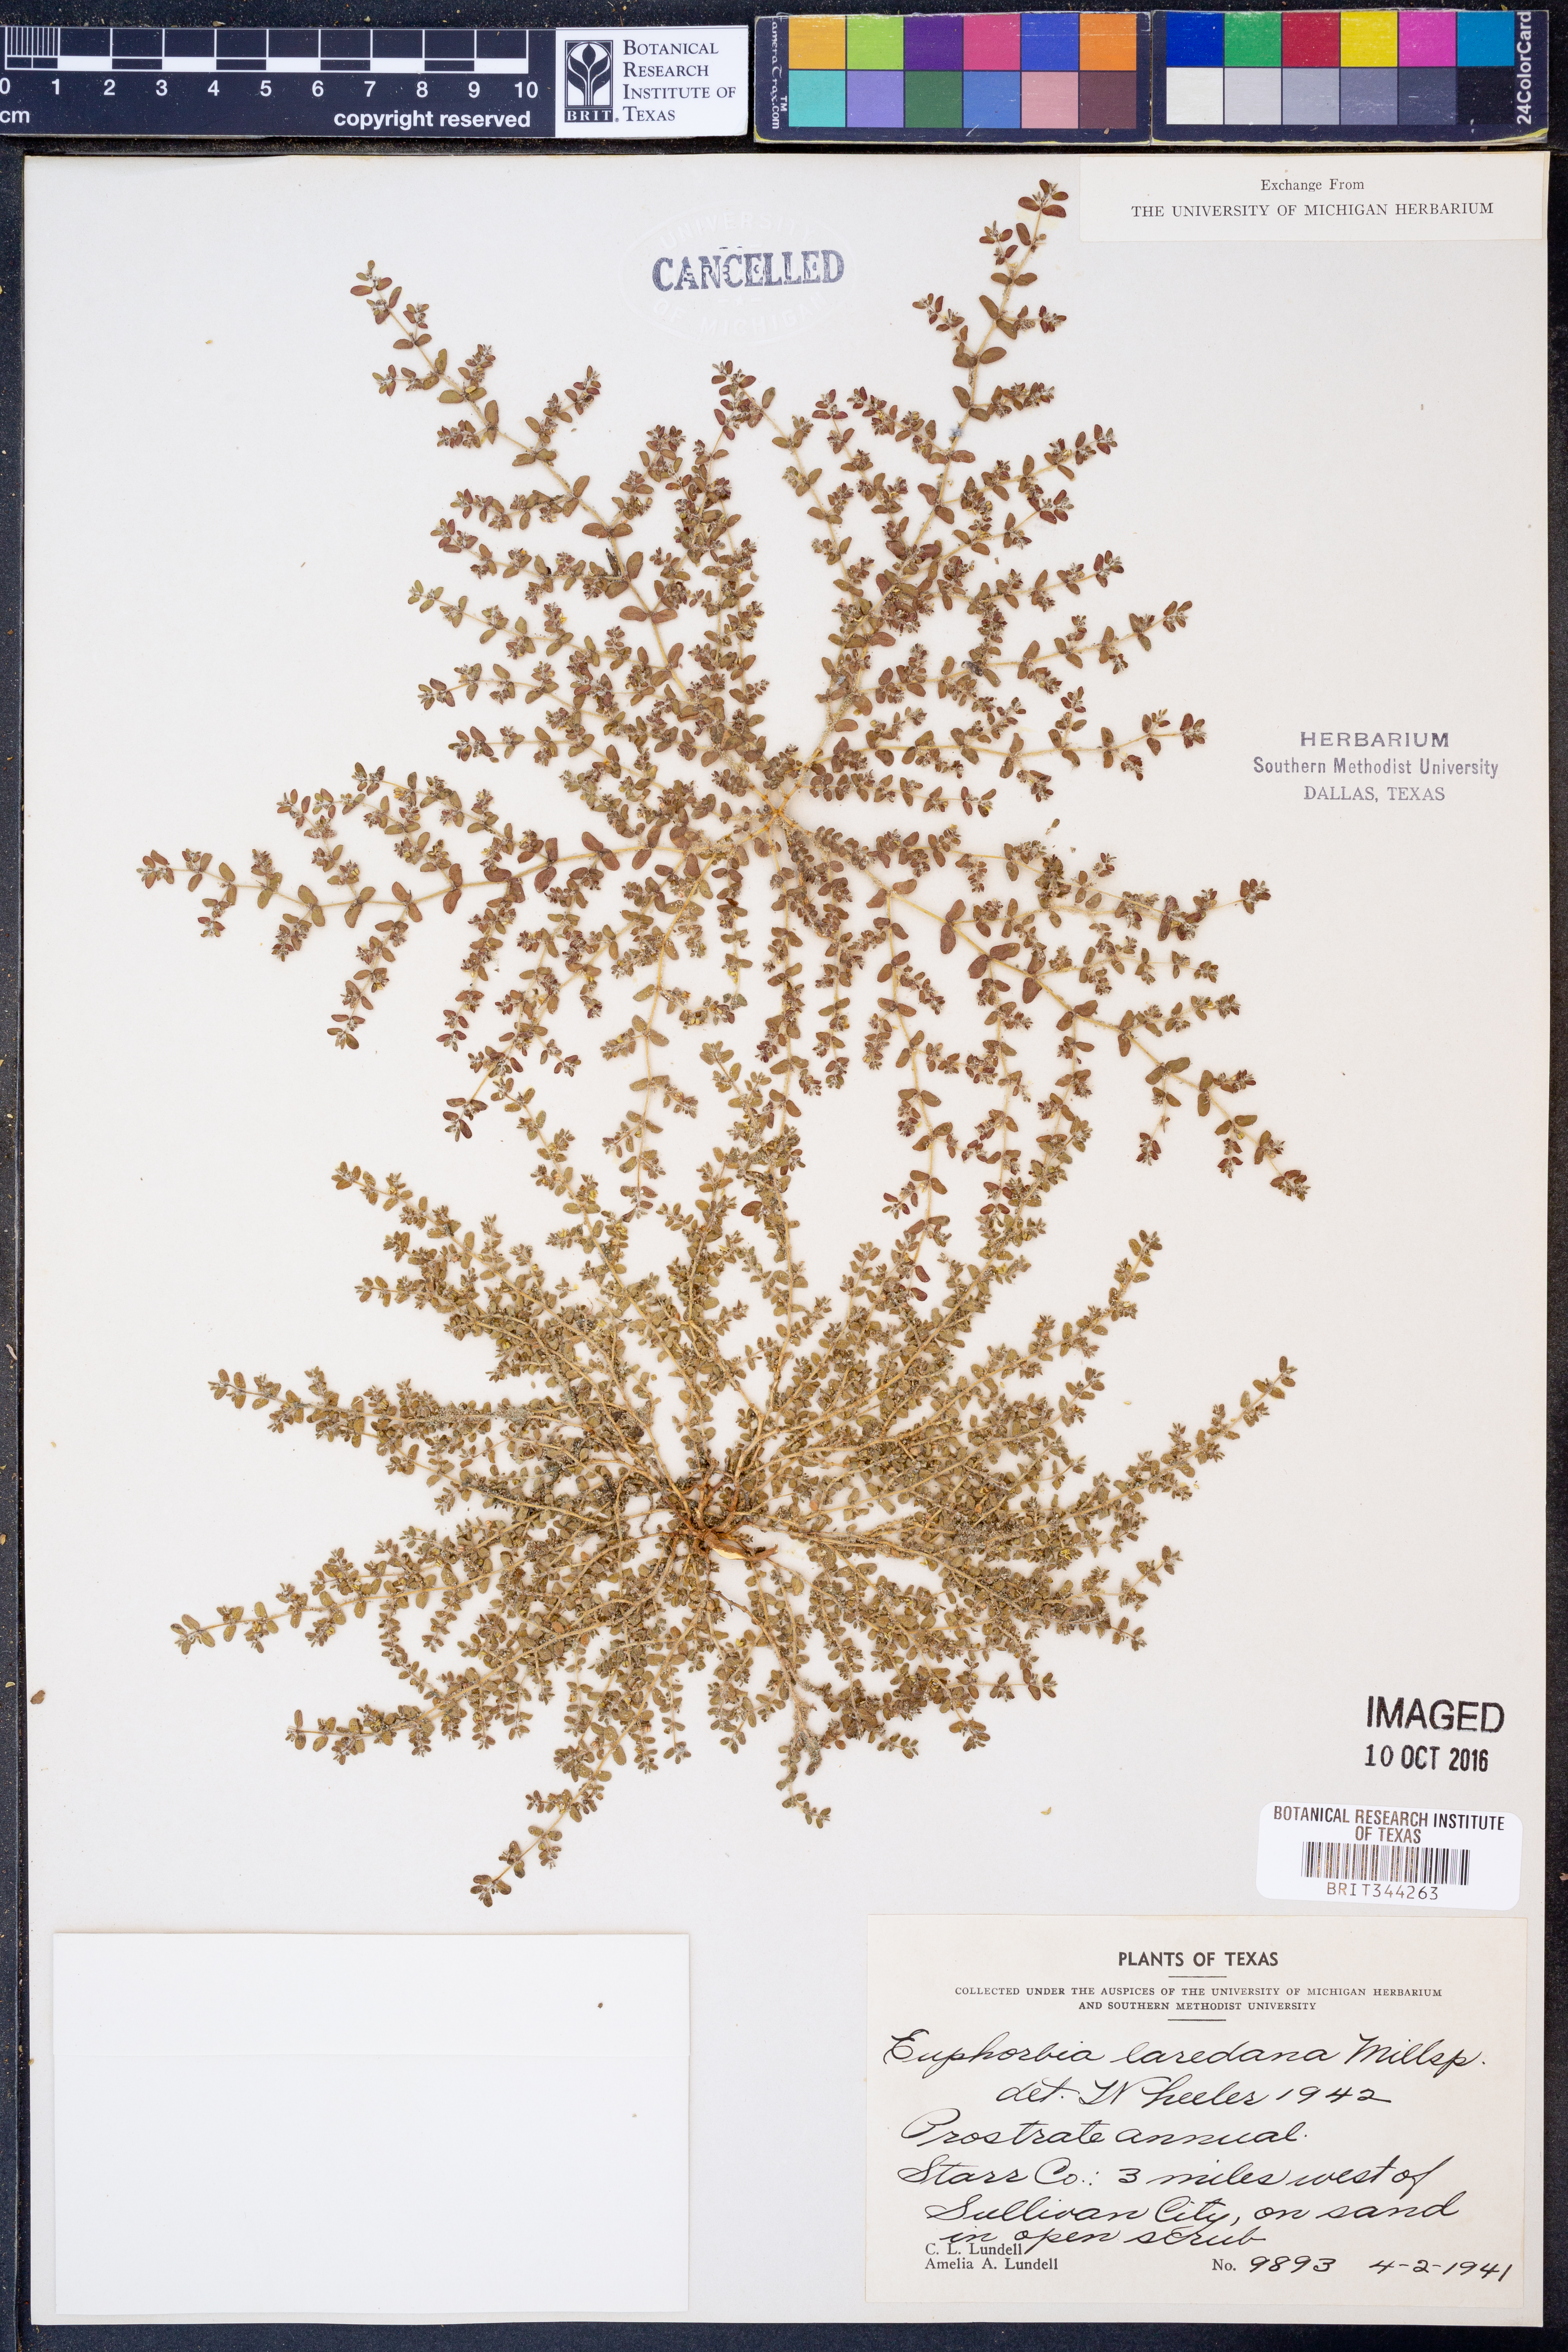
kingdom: Plantae
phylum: Tracheophyta
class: Magnoliopsida
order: Malpighiales
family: Euphorbiaceae
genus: Euphorbia
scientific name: Euphorbia laredana
